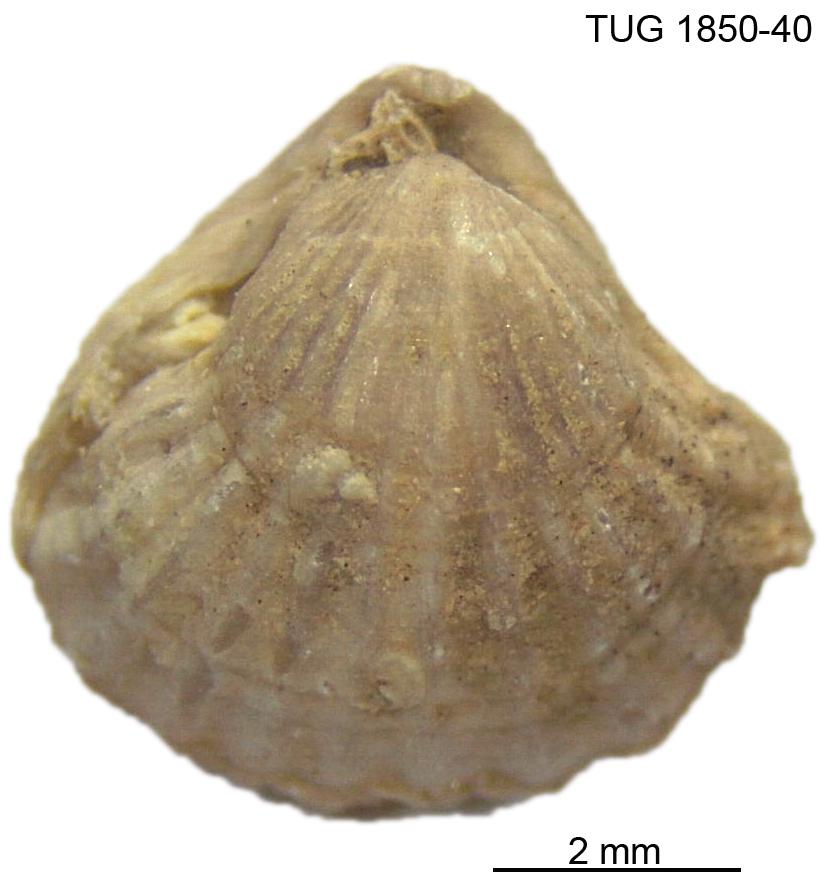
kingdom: Animalia
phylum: Brachiopoda
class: Rhynchonellata
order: Rhynchonellida
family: Rhynchotrematidae
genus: Rhynchotrema
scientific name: Rhynchotrema
